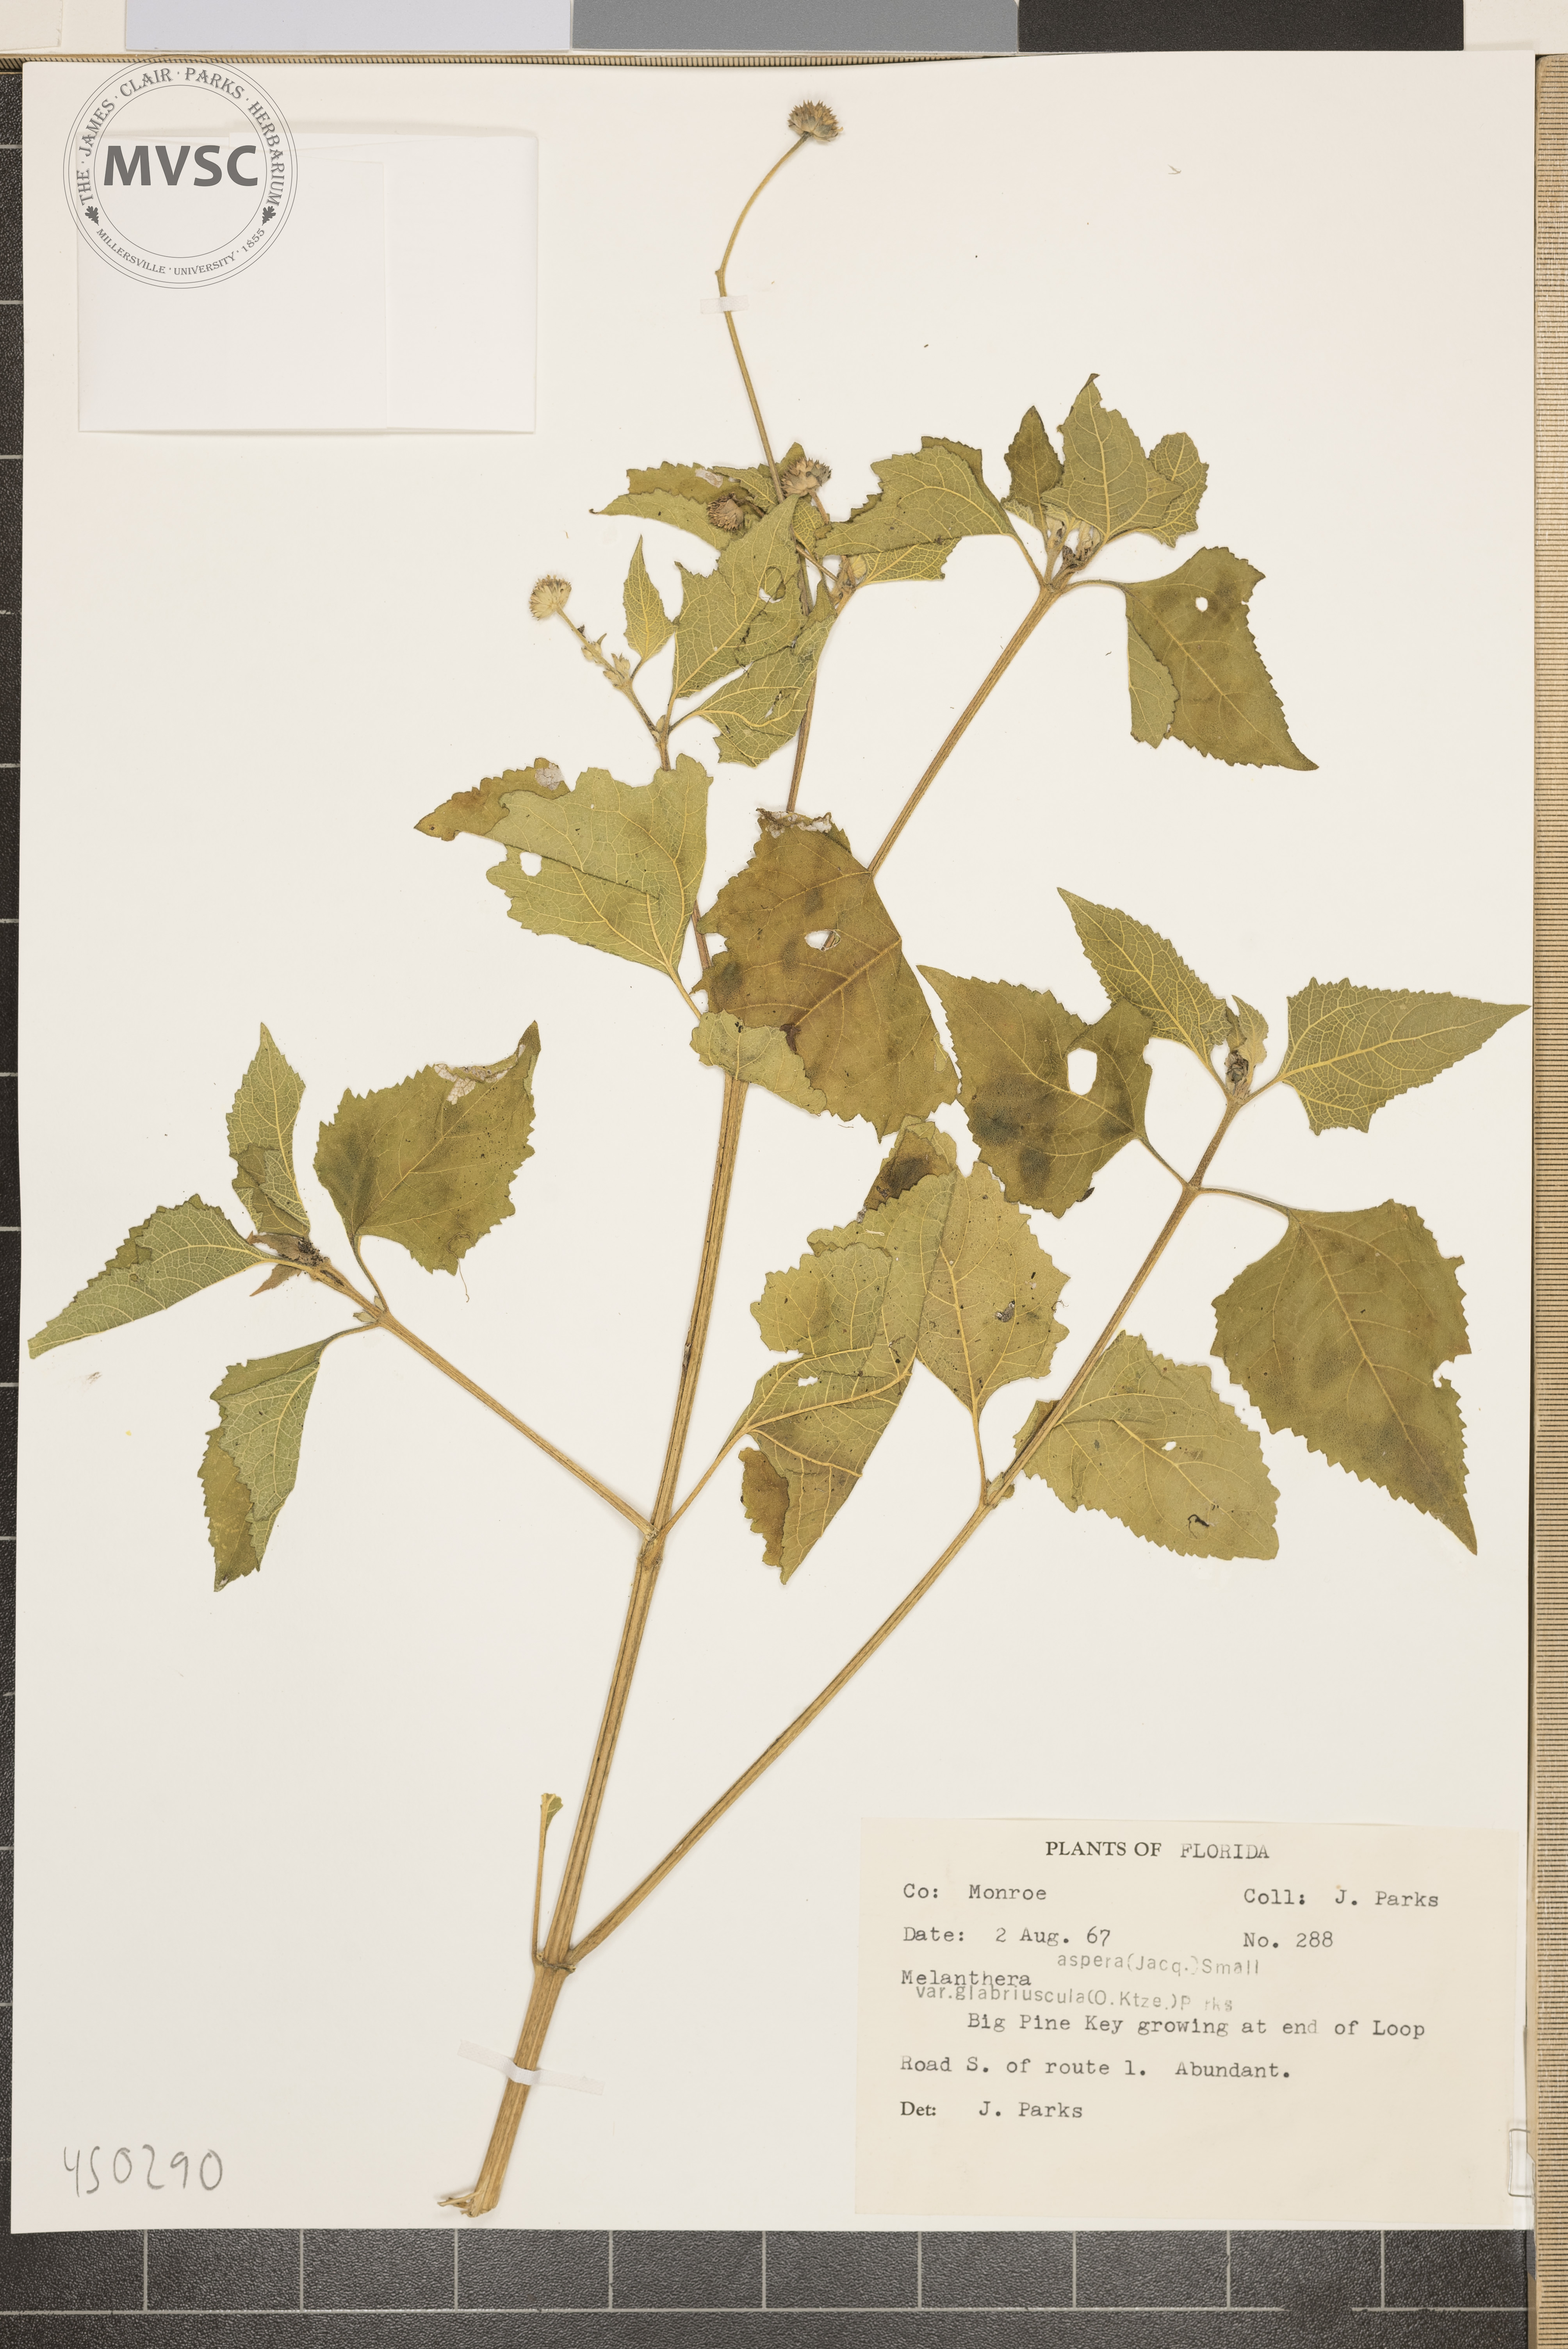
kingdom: Plantae
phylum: Tracheophyta
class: Magnoliopsida
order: Asterales
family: Asteraceae
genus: Melanthera
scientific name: Melanthera aspera
